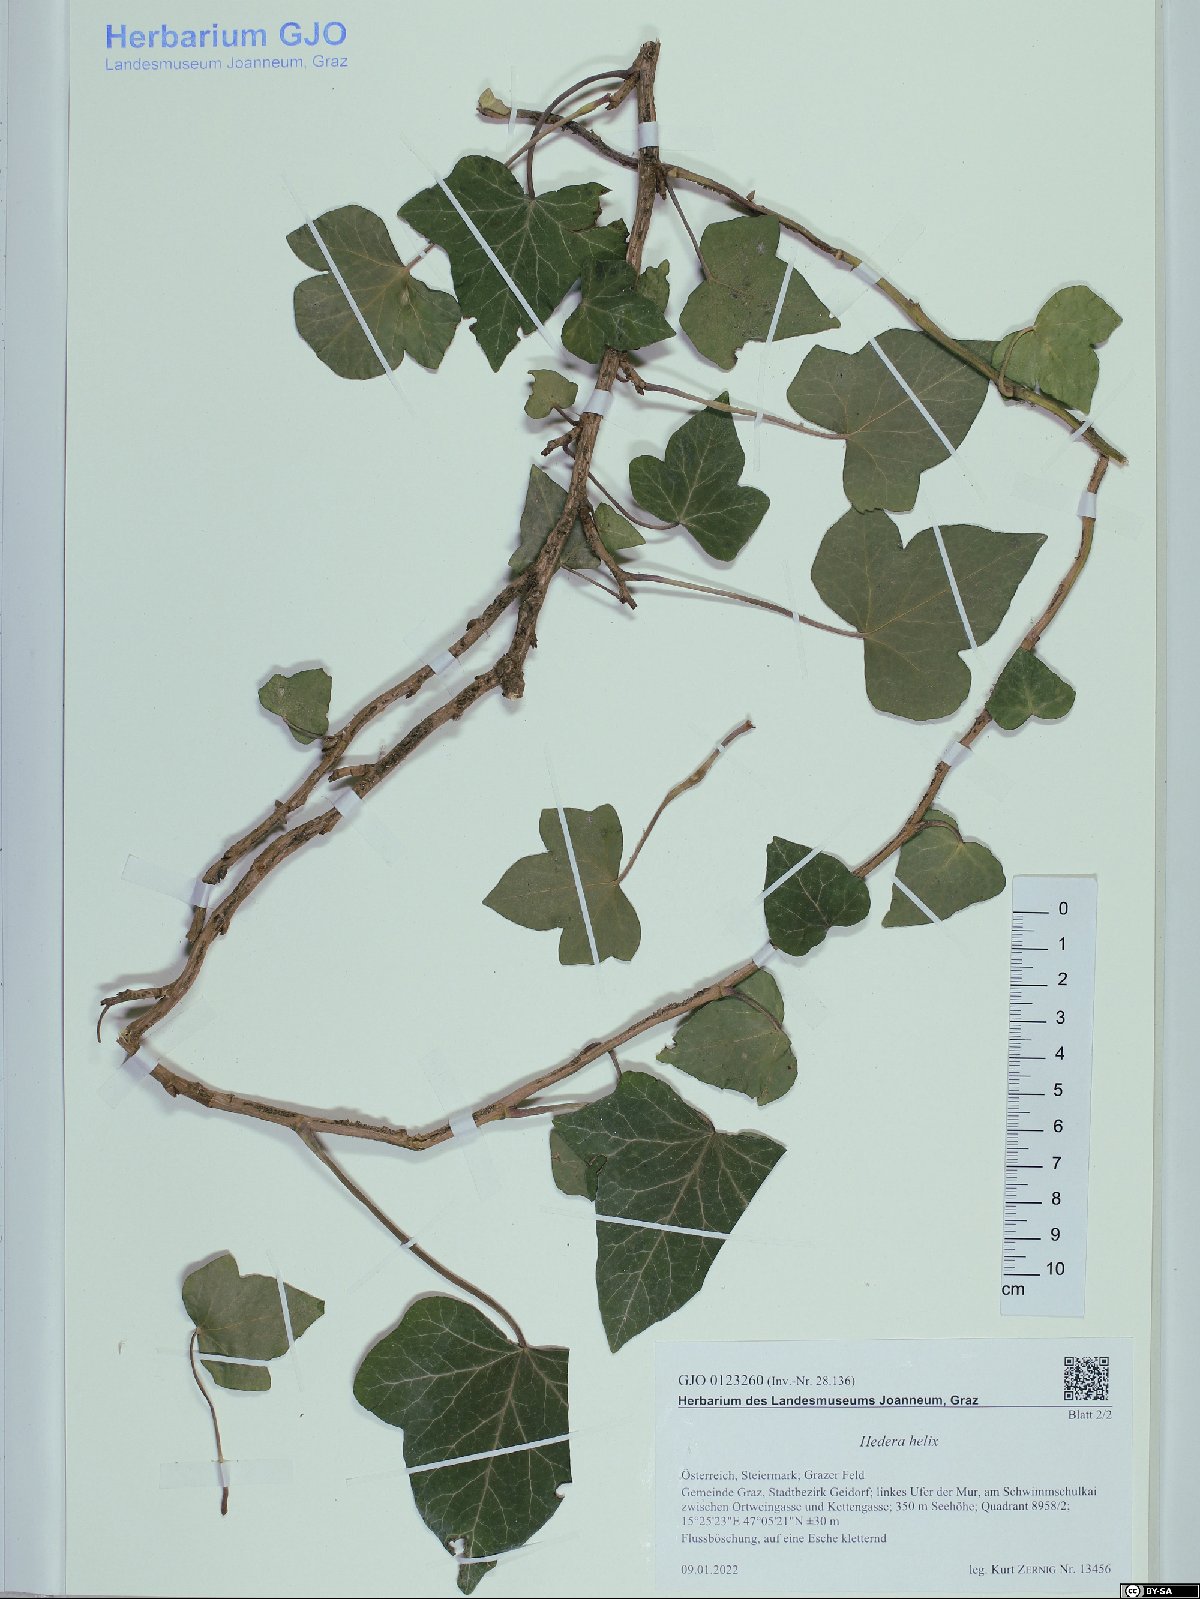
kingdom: Plantae
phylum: Tracheophyta
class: Magnoliopsida
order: Apiales
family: Araliaceae
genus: Hedera
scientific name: Hedera helix
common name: Ivy
